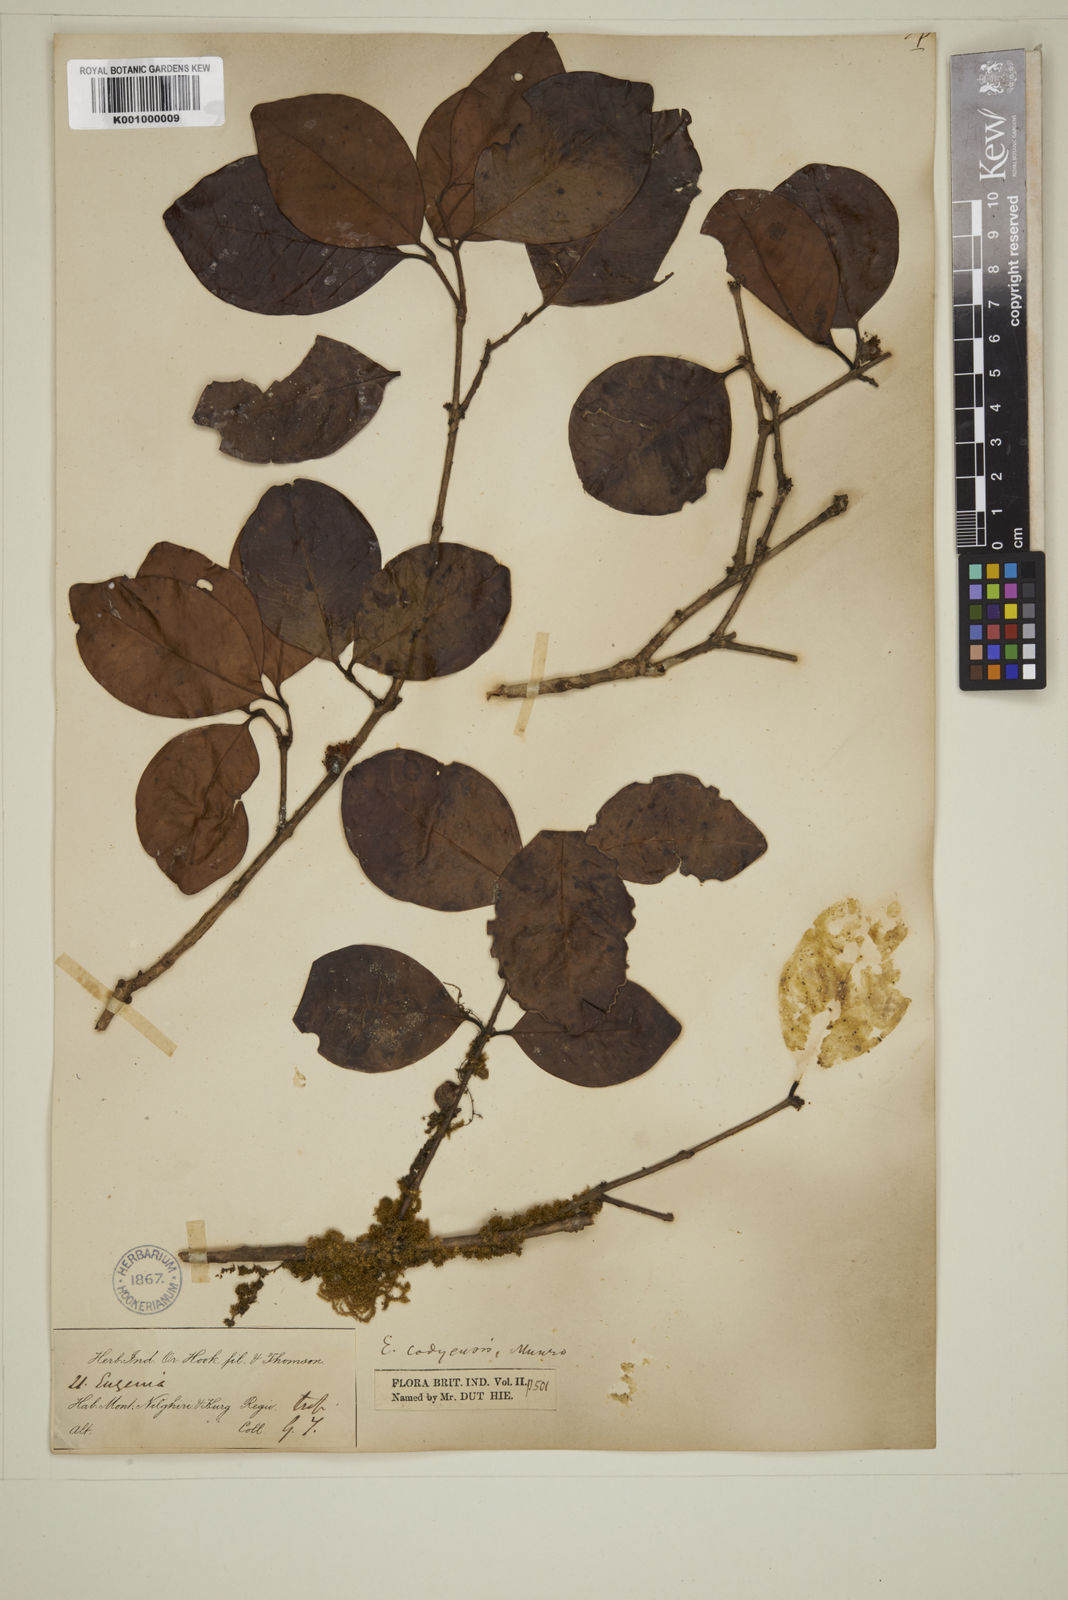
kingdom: Plantae
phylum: Tracheophyta
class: Magnoliopsida
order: Myrtales
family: Myrtaceae
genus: Eugenia
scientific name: Eugenia codyensis
